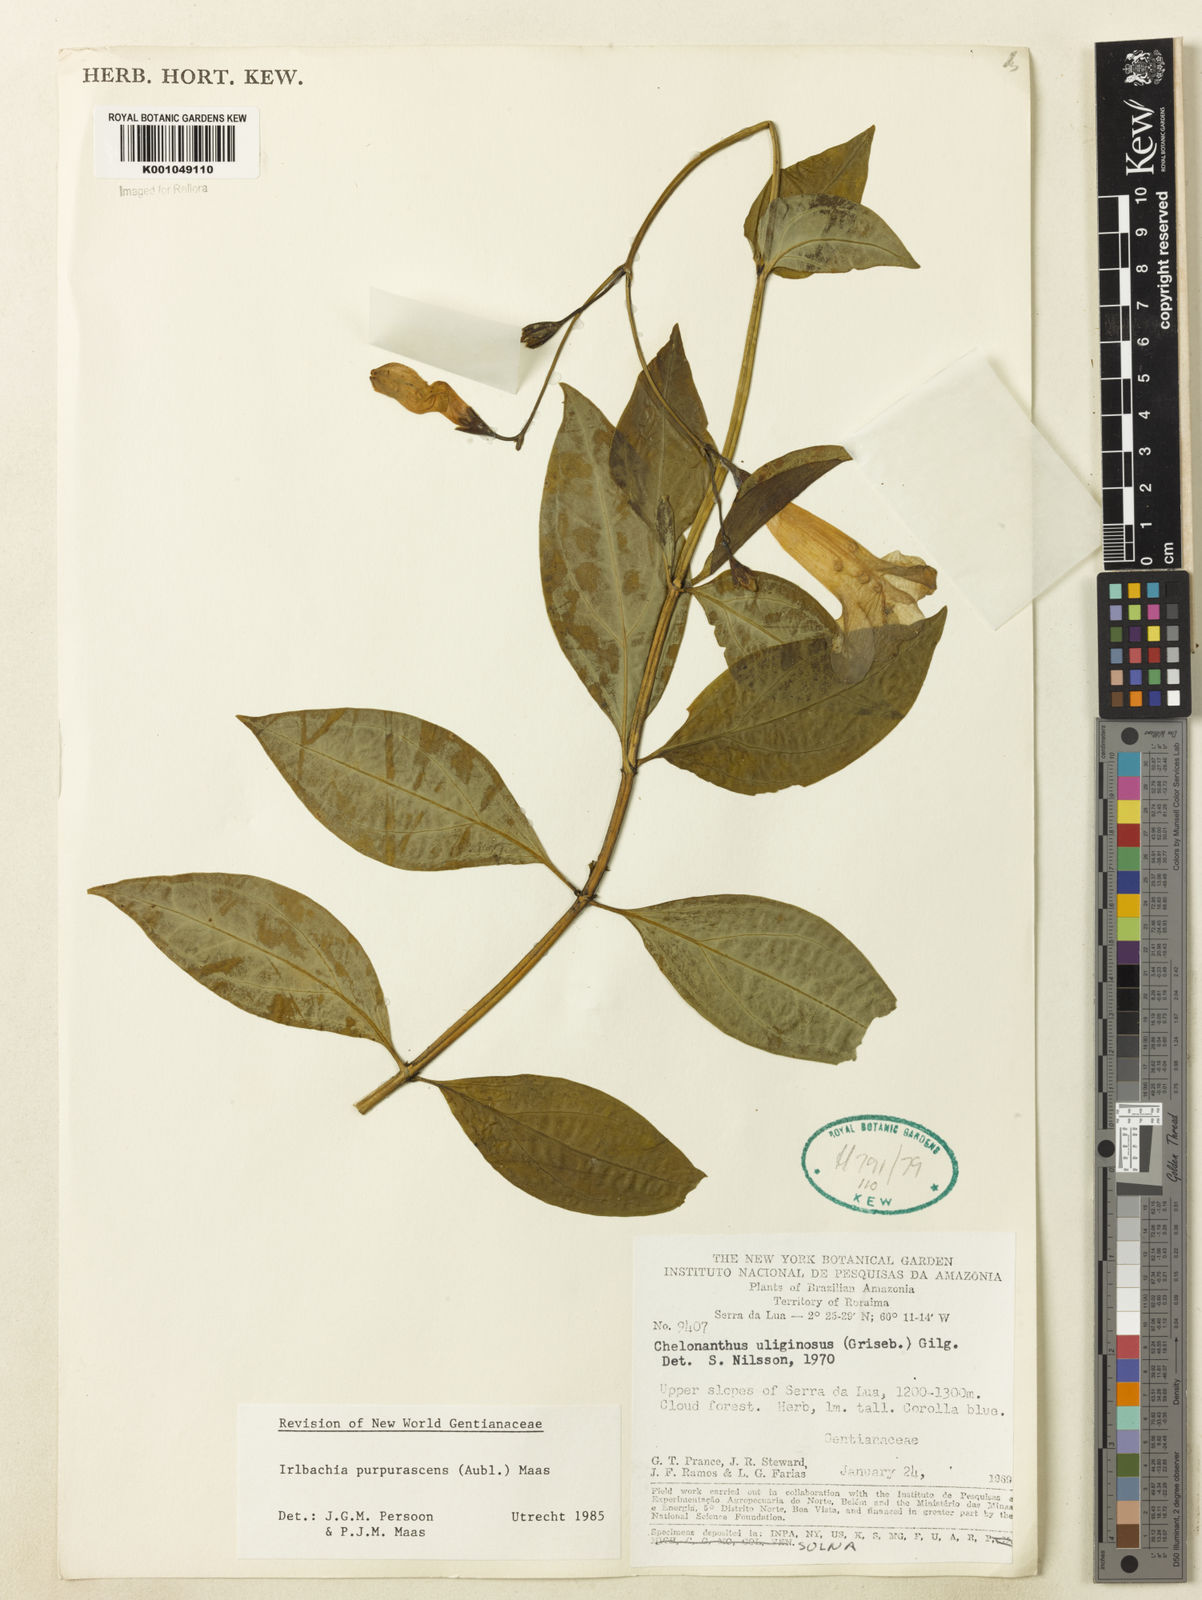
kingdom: Plantae
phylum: Tracheophyta
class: Magnoliopsida
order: Gentianales
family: Gentianaceae
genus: Chelonanthus
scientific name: Chelonanthus purpurascens
